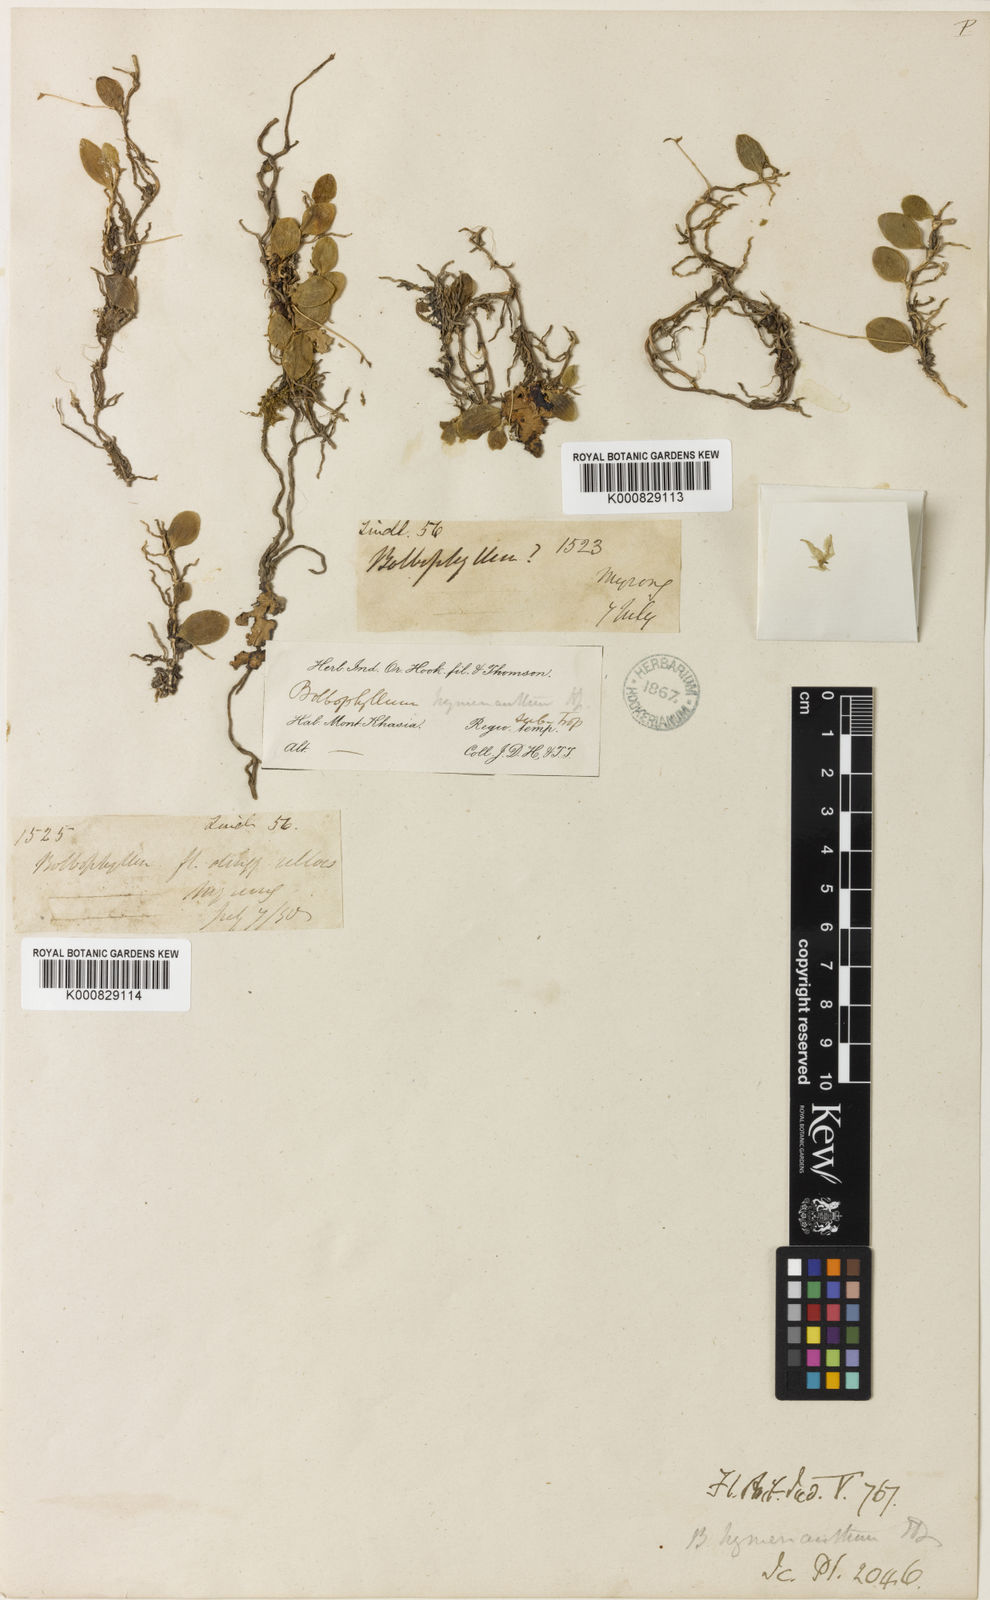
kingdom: Plantae
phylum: Tracheophyta
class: Liliopsida
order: Asparagales
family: Orchidaceae
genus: Bulbophyllum
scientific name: Bulbophyllum hymenanthum
